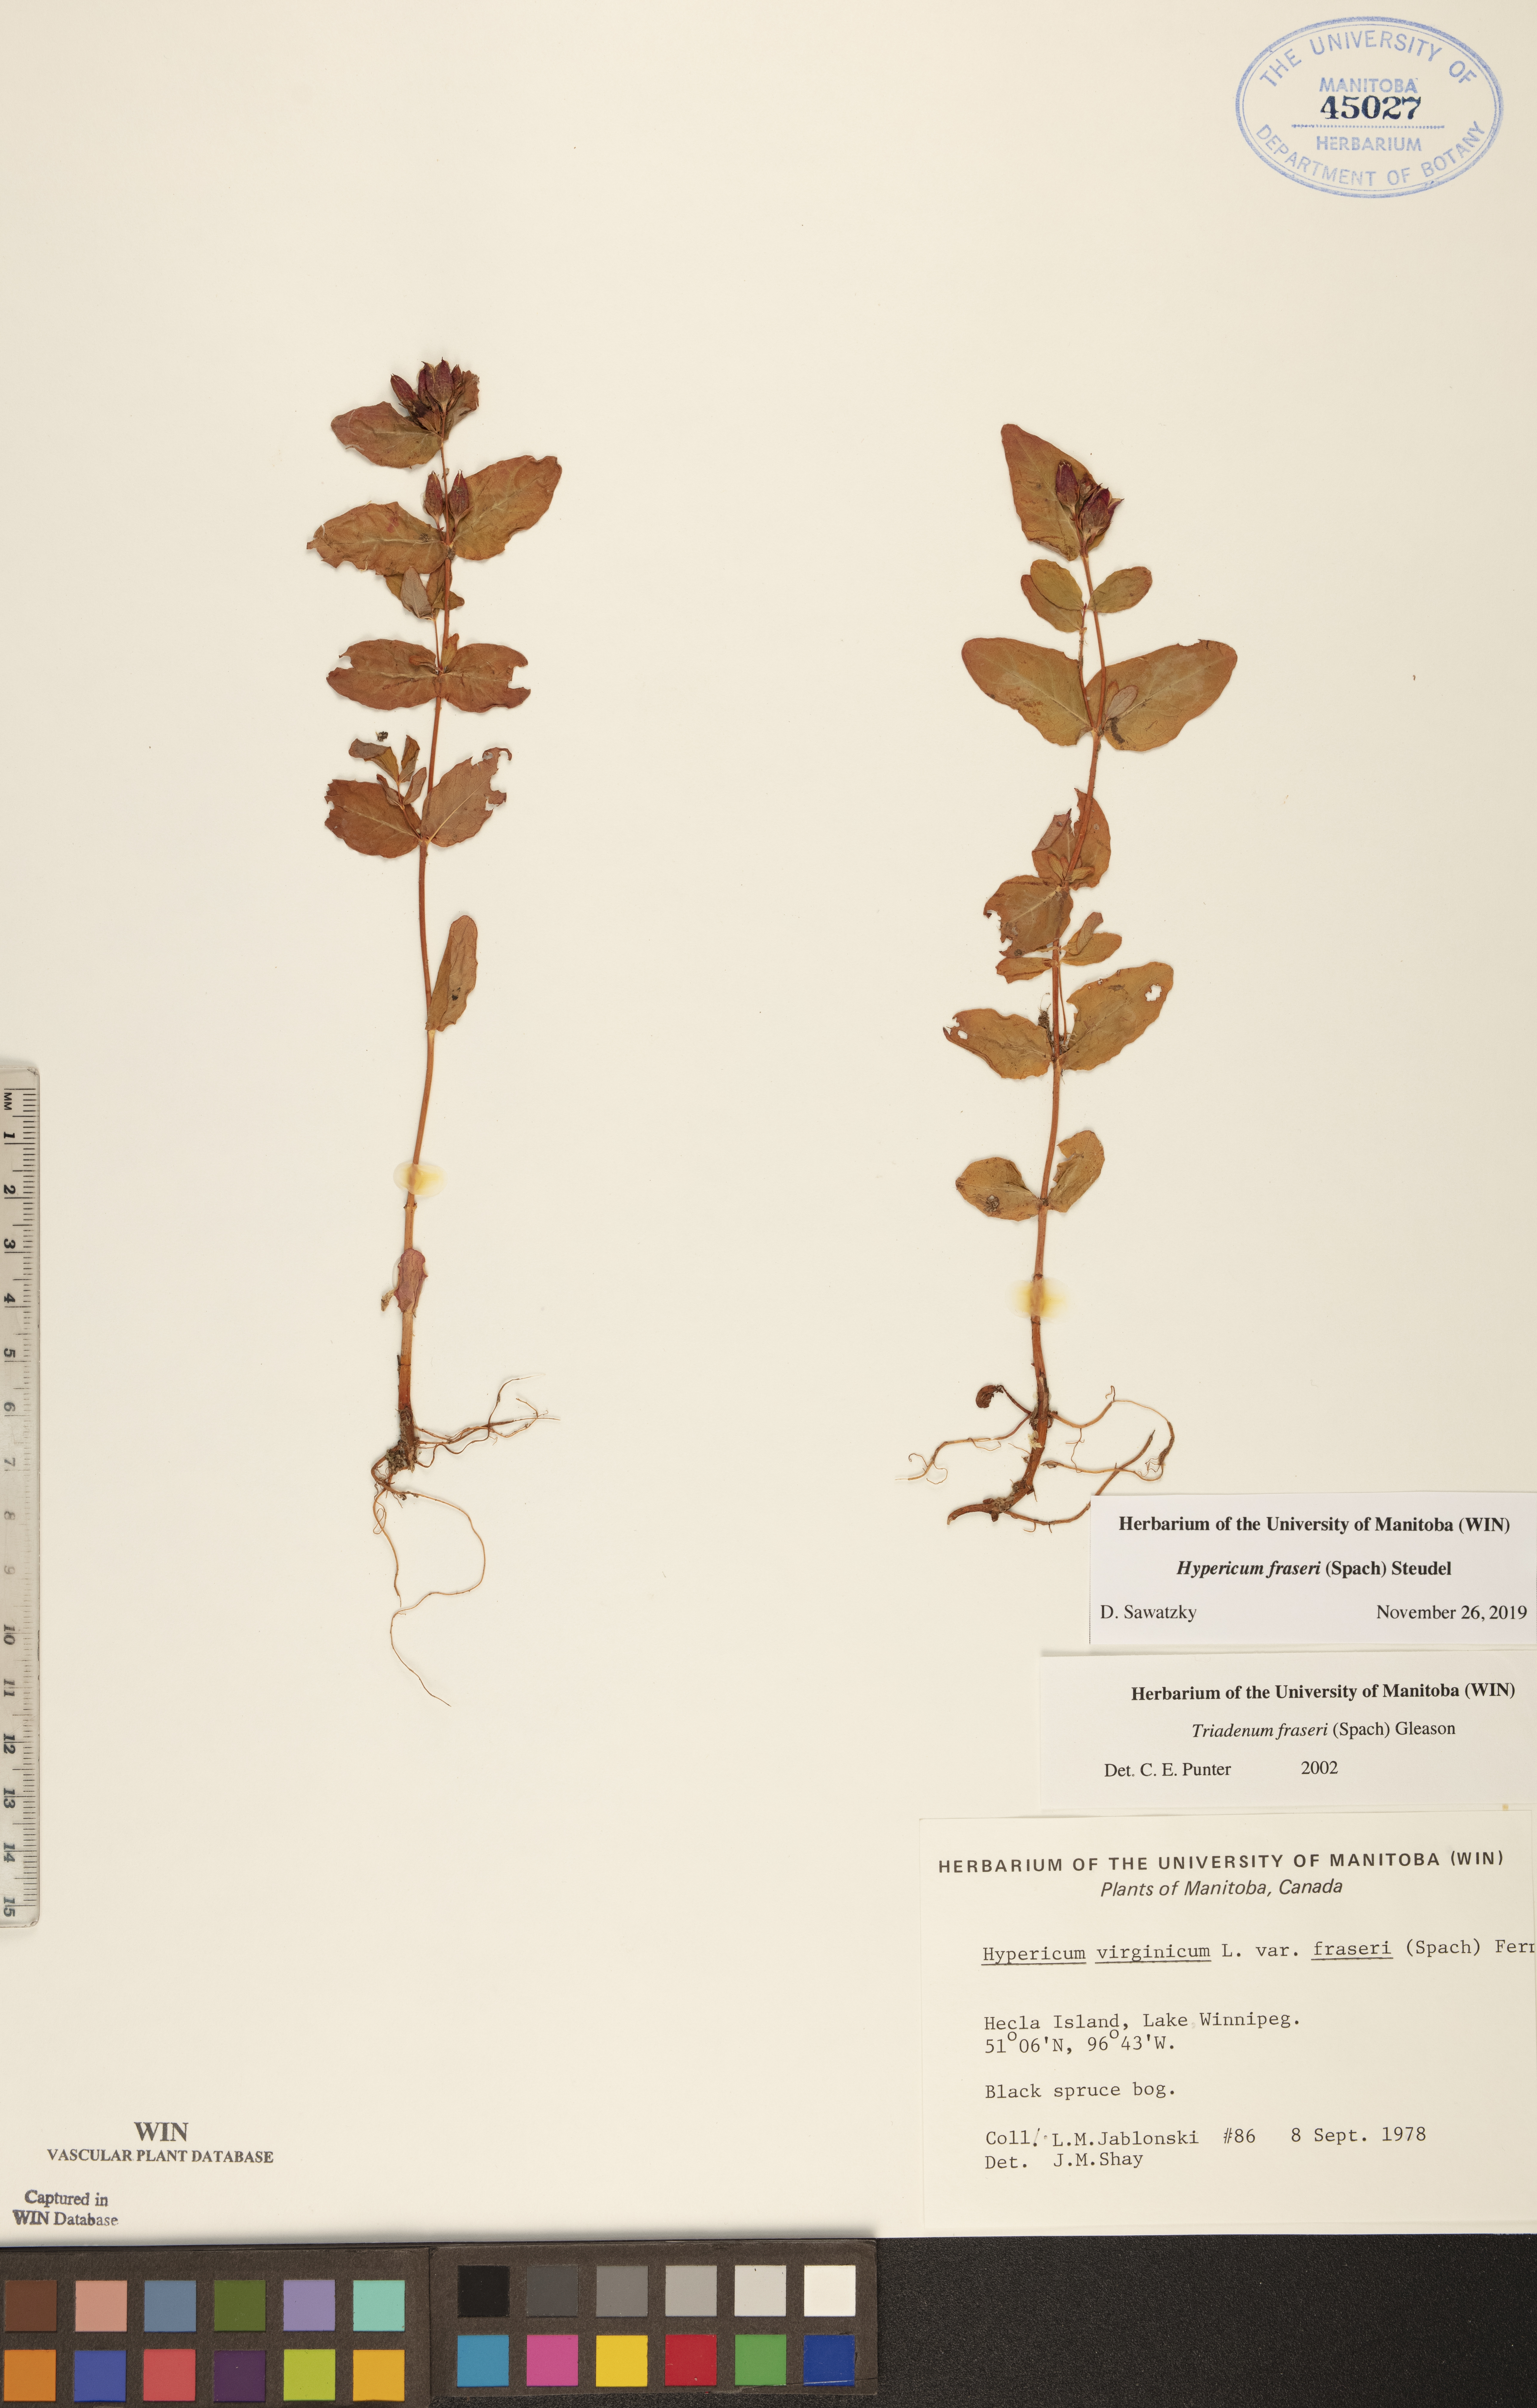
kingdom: Plantae
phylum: Tracheophyta
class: Magnoliopsida
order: Malpighiales
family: Hypericaceae
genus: Triadenum
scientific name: Triadenum fraseri
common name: Fraser's marsh st. johnswort
